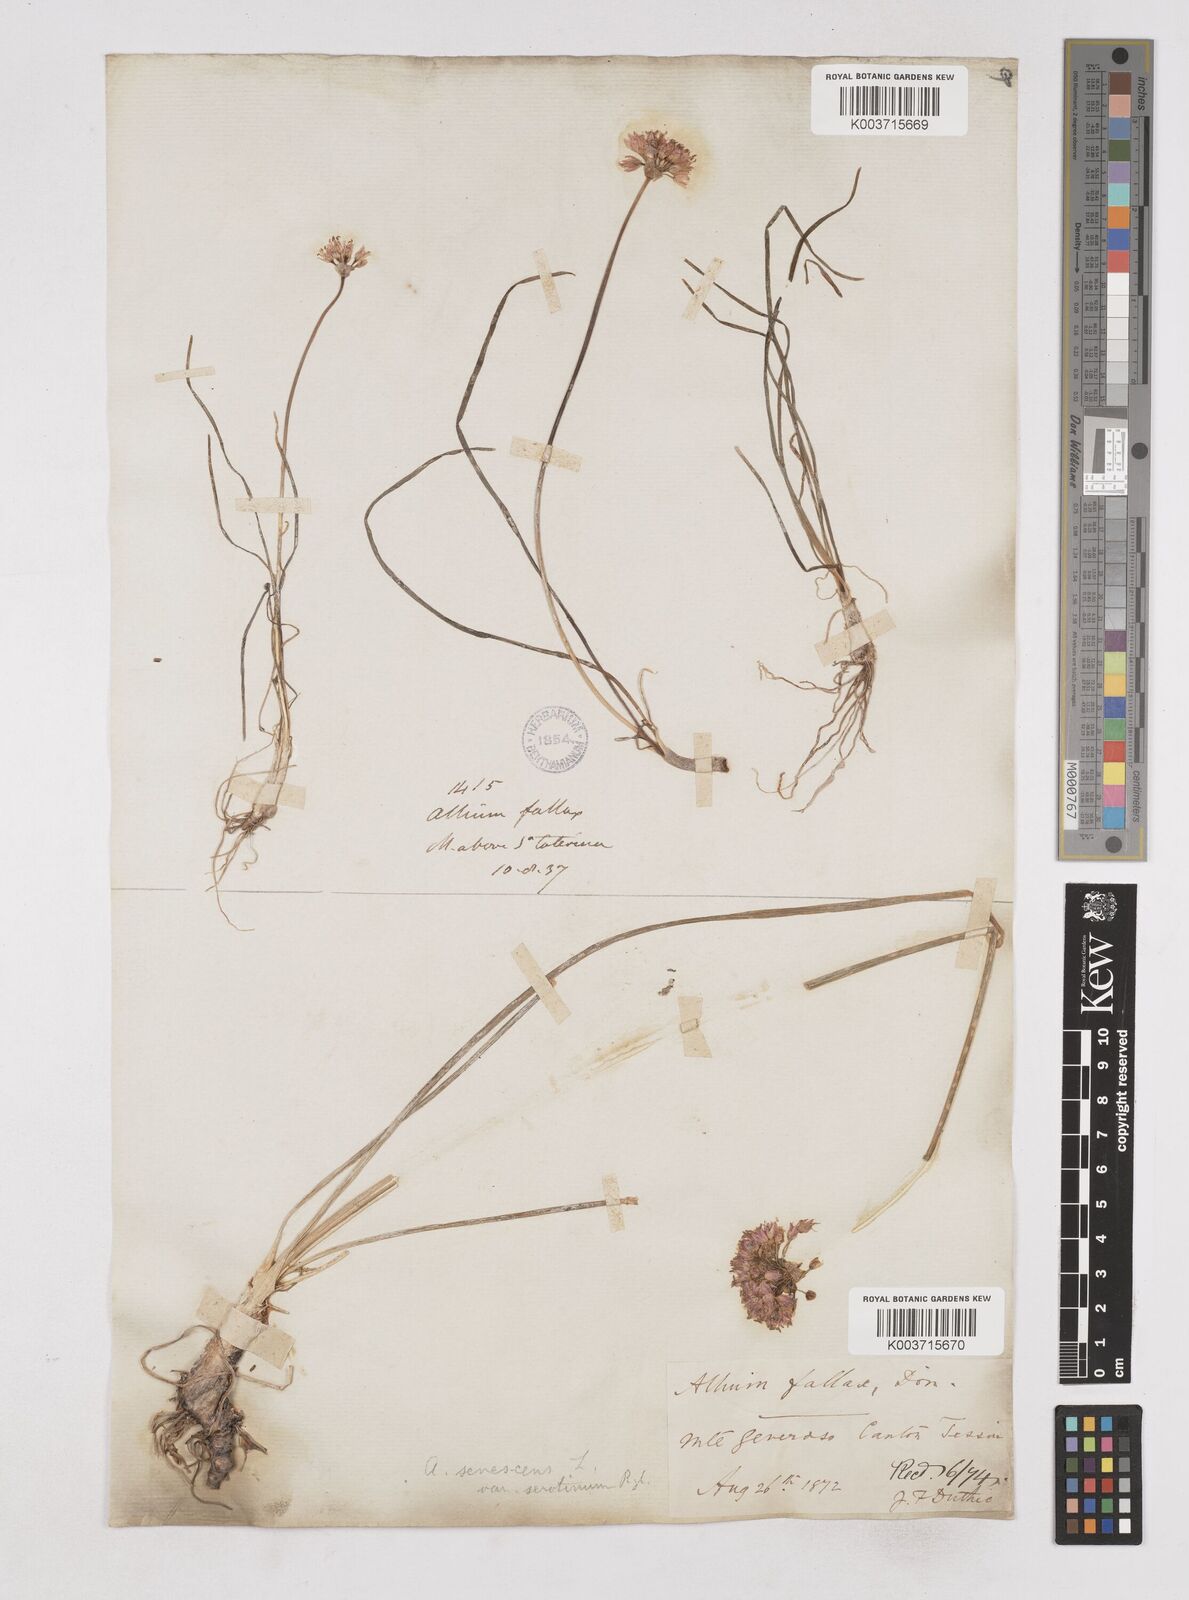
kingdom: Plantae
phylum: Tracheophyta
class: Liliopsida
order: Asparagales
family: Amaryllidaceae
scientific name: Amaryllidaceae
